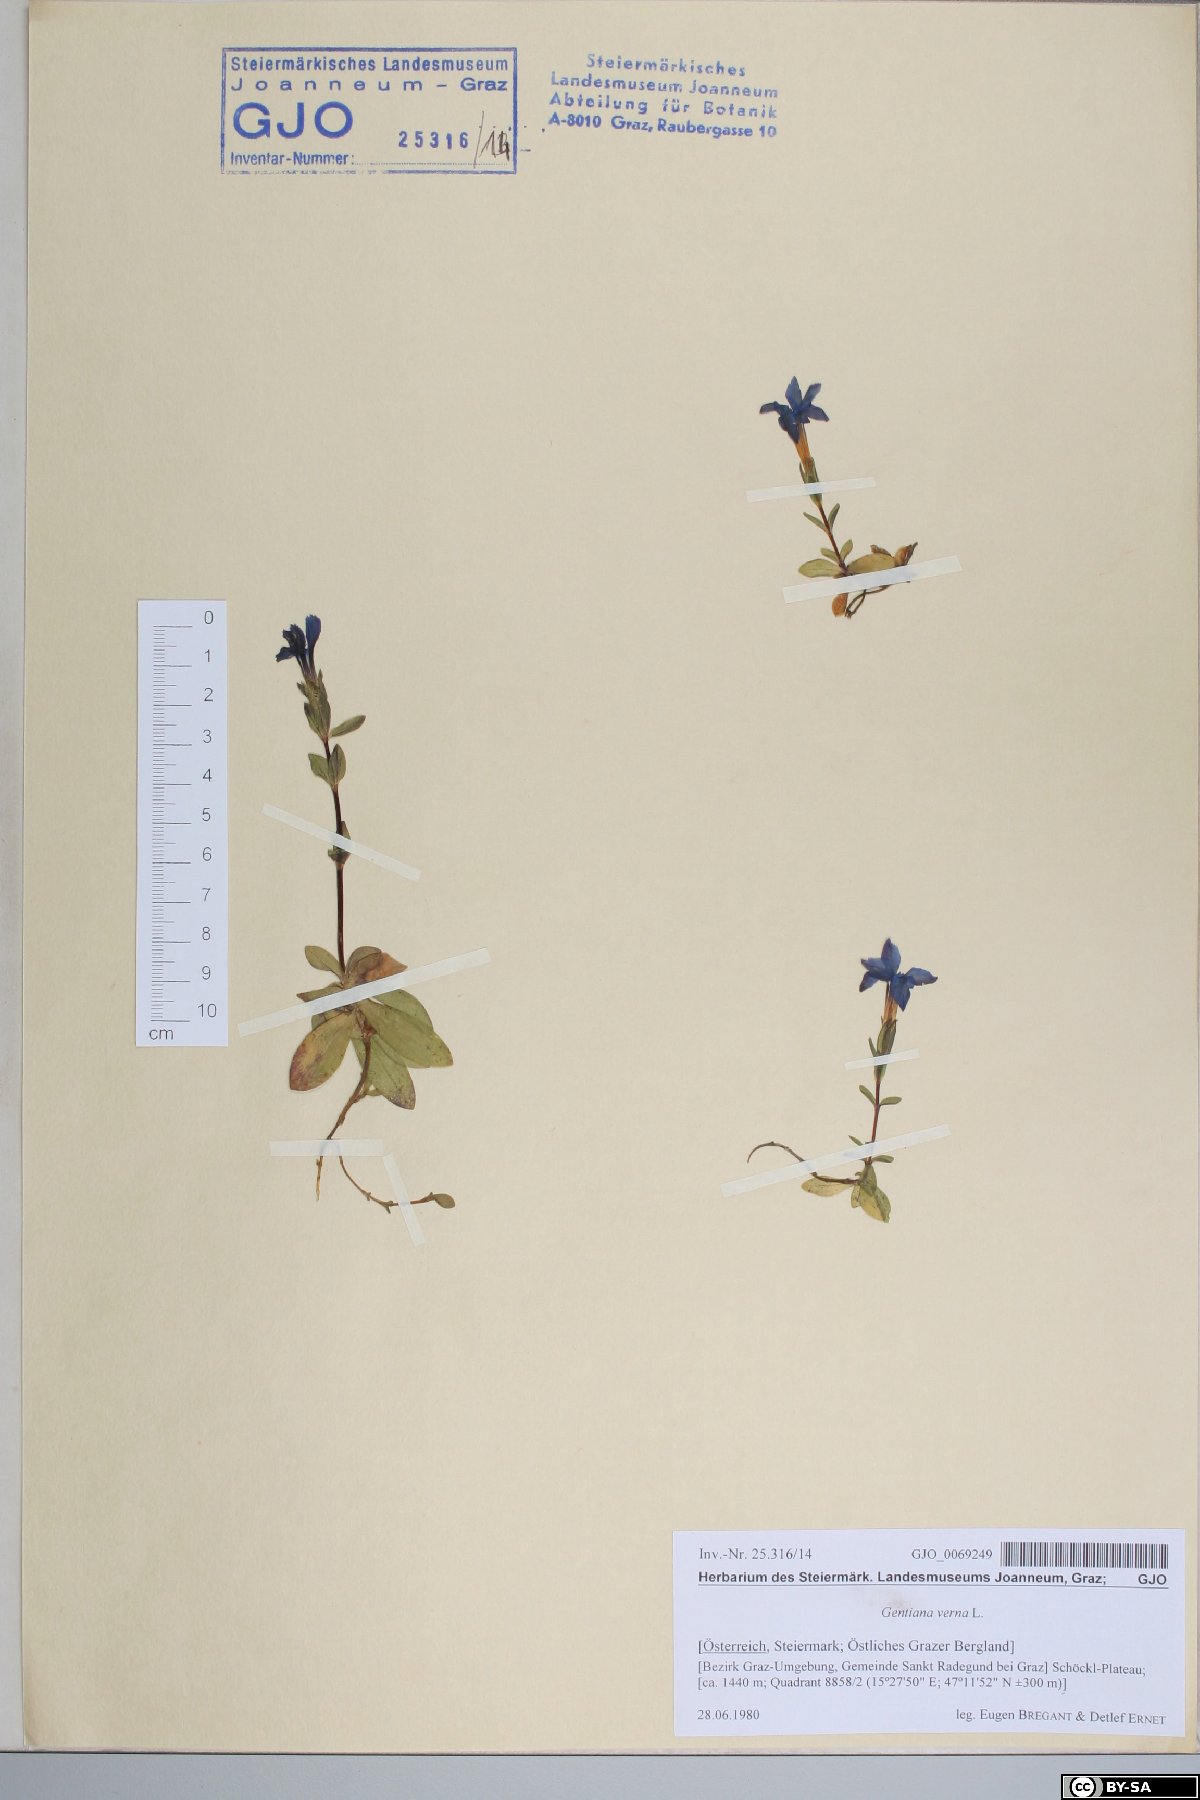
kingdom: Plantae
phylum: Tracheophyta
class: Magnoliopsida
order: Gentianales
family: Gentianaceae
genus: Gentiana
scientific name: Gentiana verna
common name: Spring gentian
